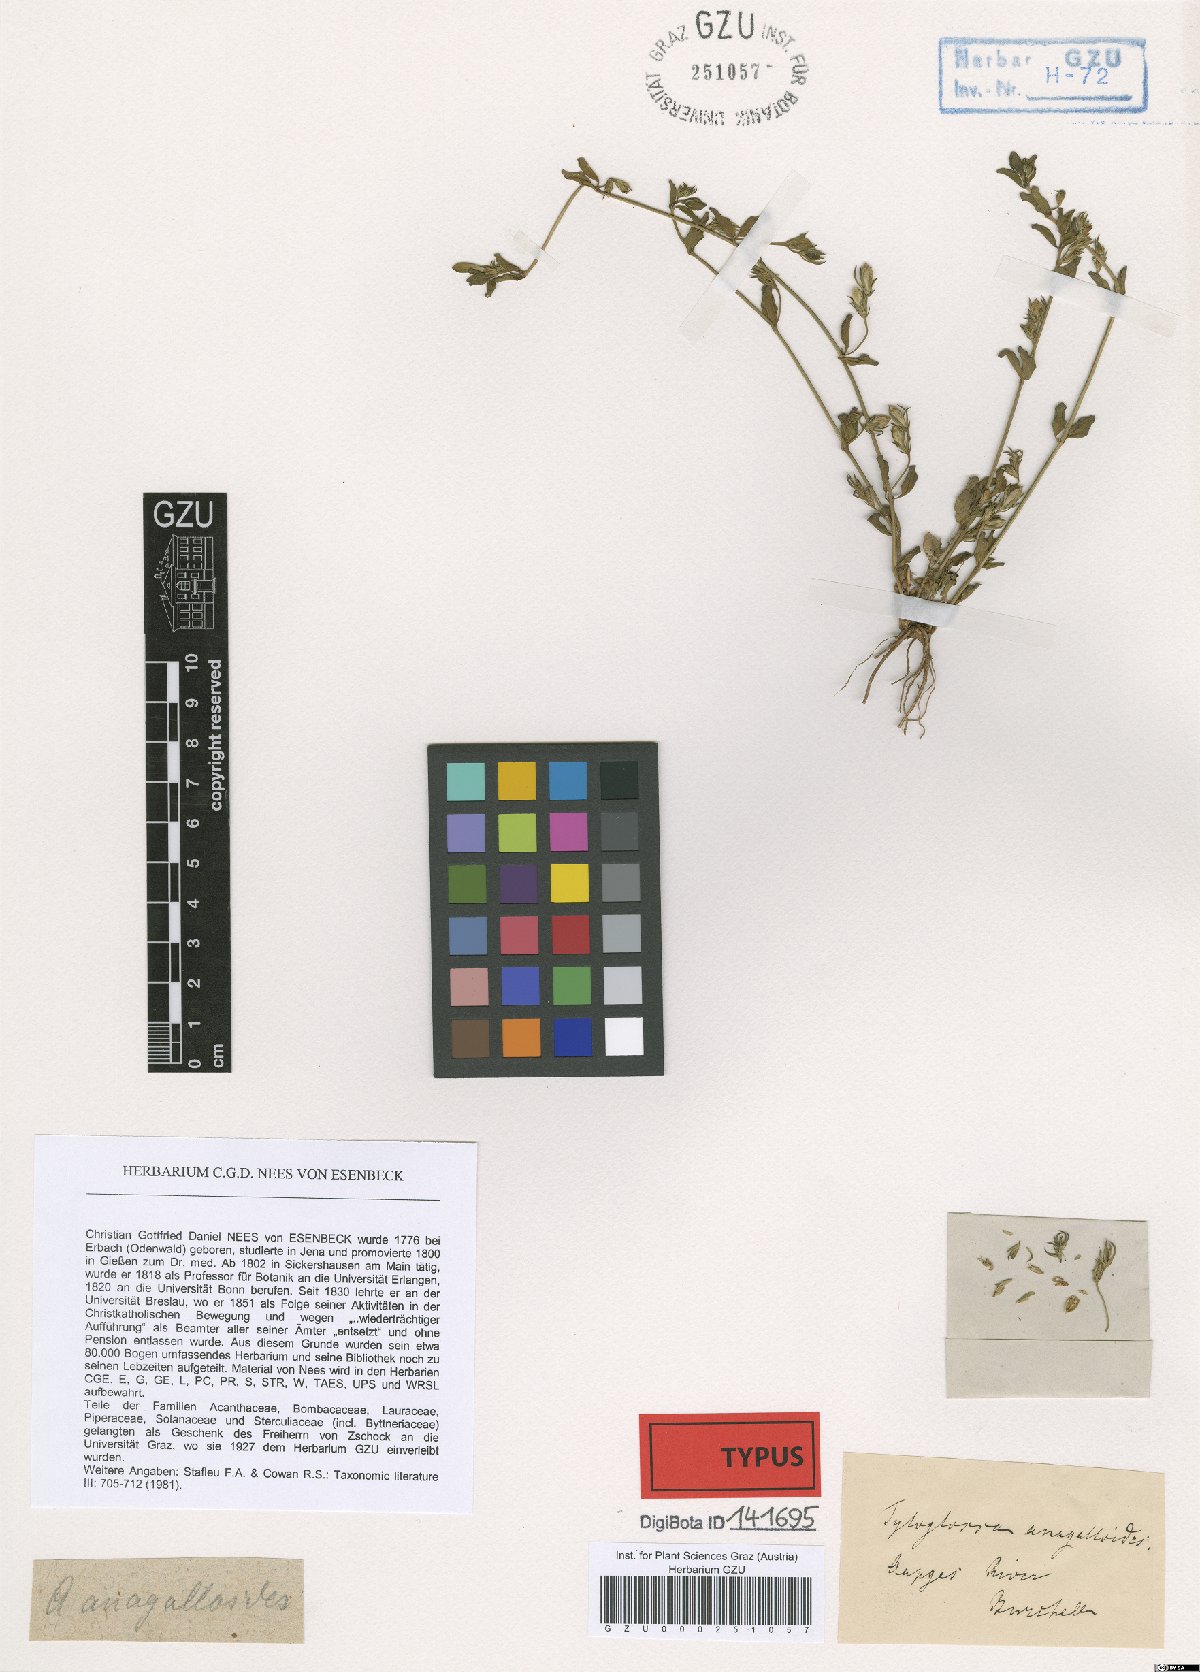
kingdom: Plantae
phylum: Tracheophyta
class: Magnoliopsida
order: Lamiales
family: Acanthaceae
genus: Justicia
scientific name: Justicia anagalloides
